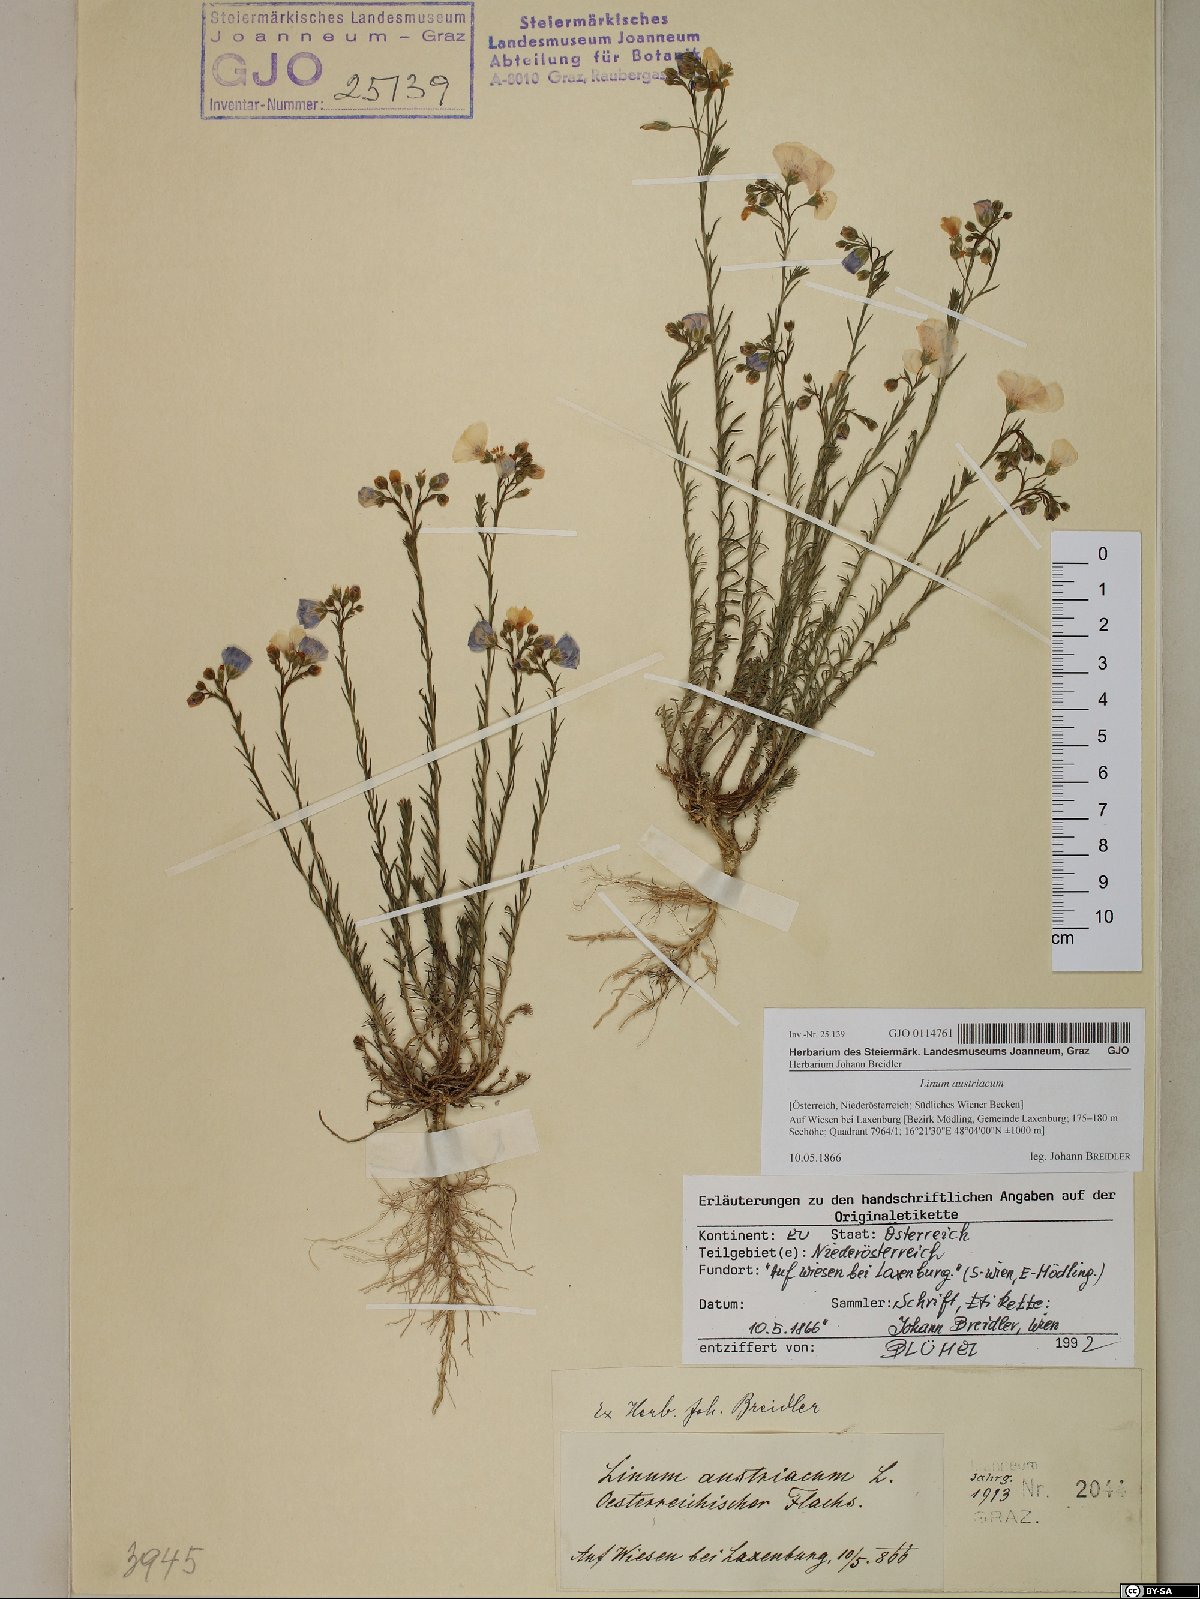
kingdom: Plantae
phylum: Tracheophyta
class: Magnoliopsida
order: Malpighiales
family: Linaceae
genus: Linum
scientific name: Linum austriacum
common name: Austrian flax
